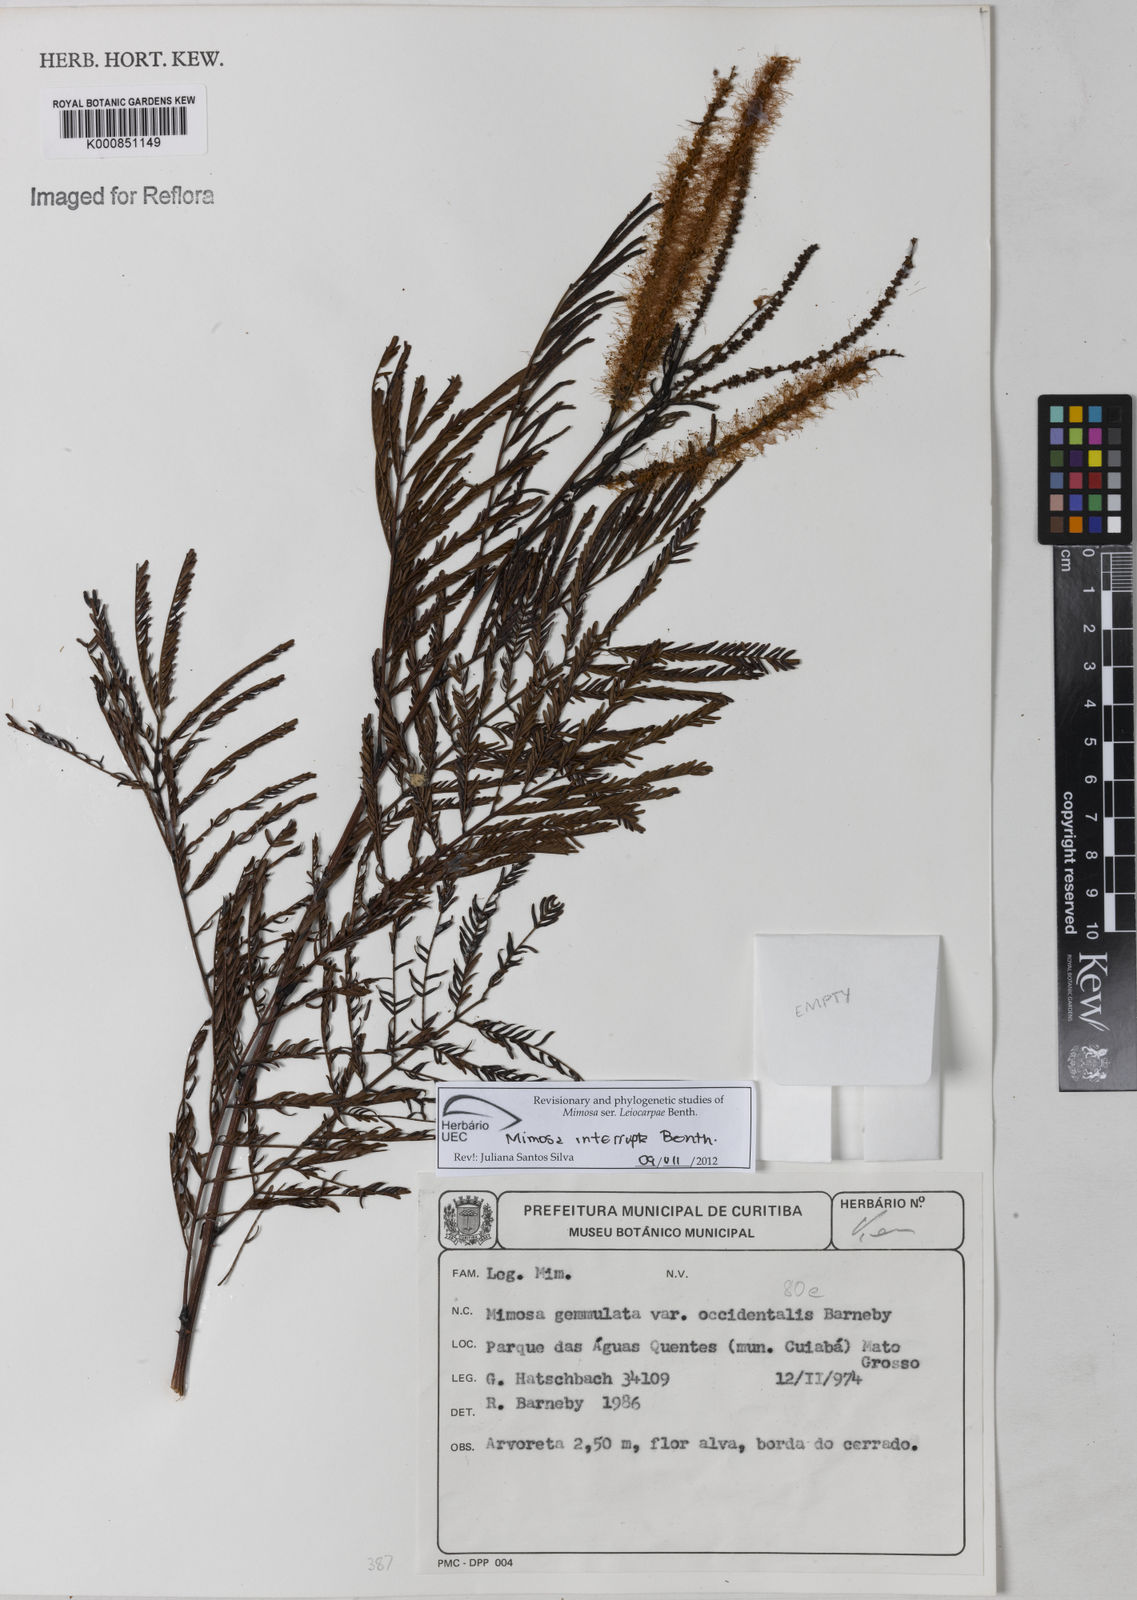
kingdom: Plantae
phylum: Tracheophyta
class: Magnoliopsida
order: Fabales
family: Fabaceae
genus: Mimosa
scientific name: Mimosa interrupta
